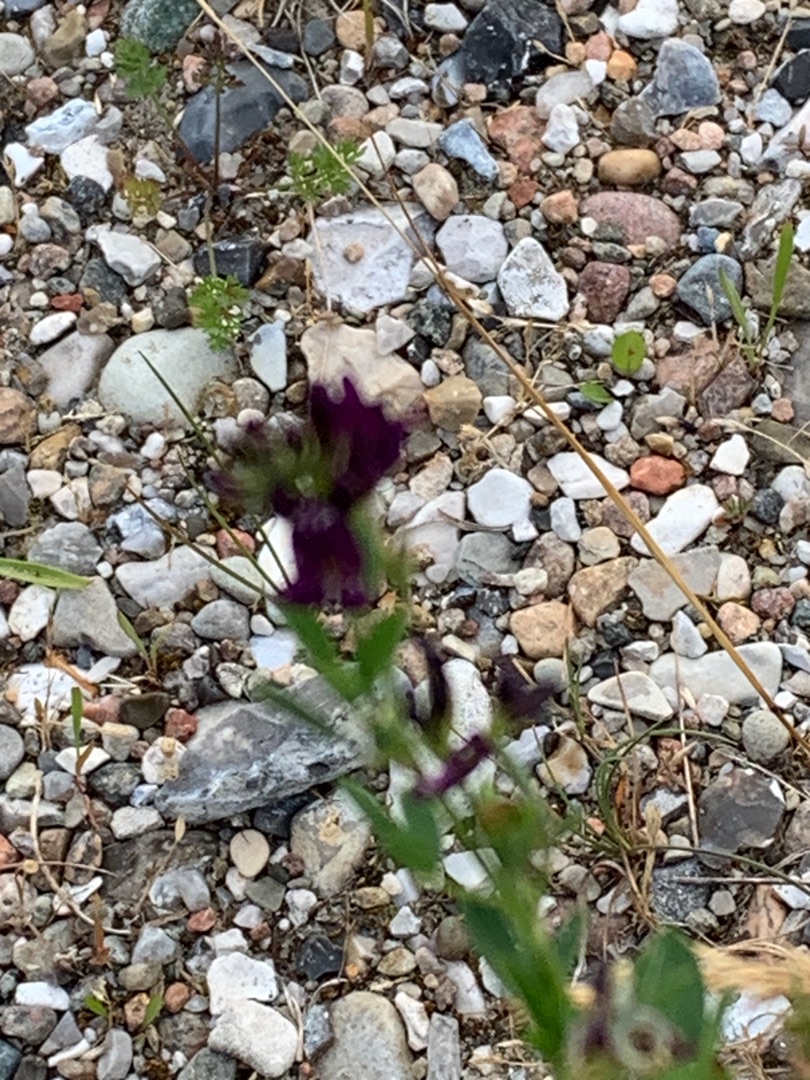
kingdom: Plantae
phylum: Tracheophyta
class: Magnoliopsida
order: Fabales
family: Fabaceae
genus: Medicago
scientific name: Medicago sativa
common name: Lucerne
